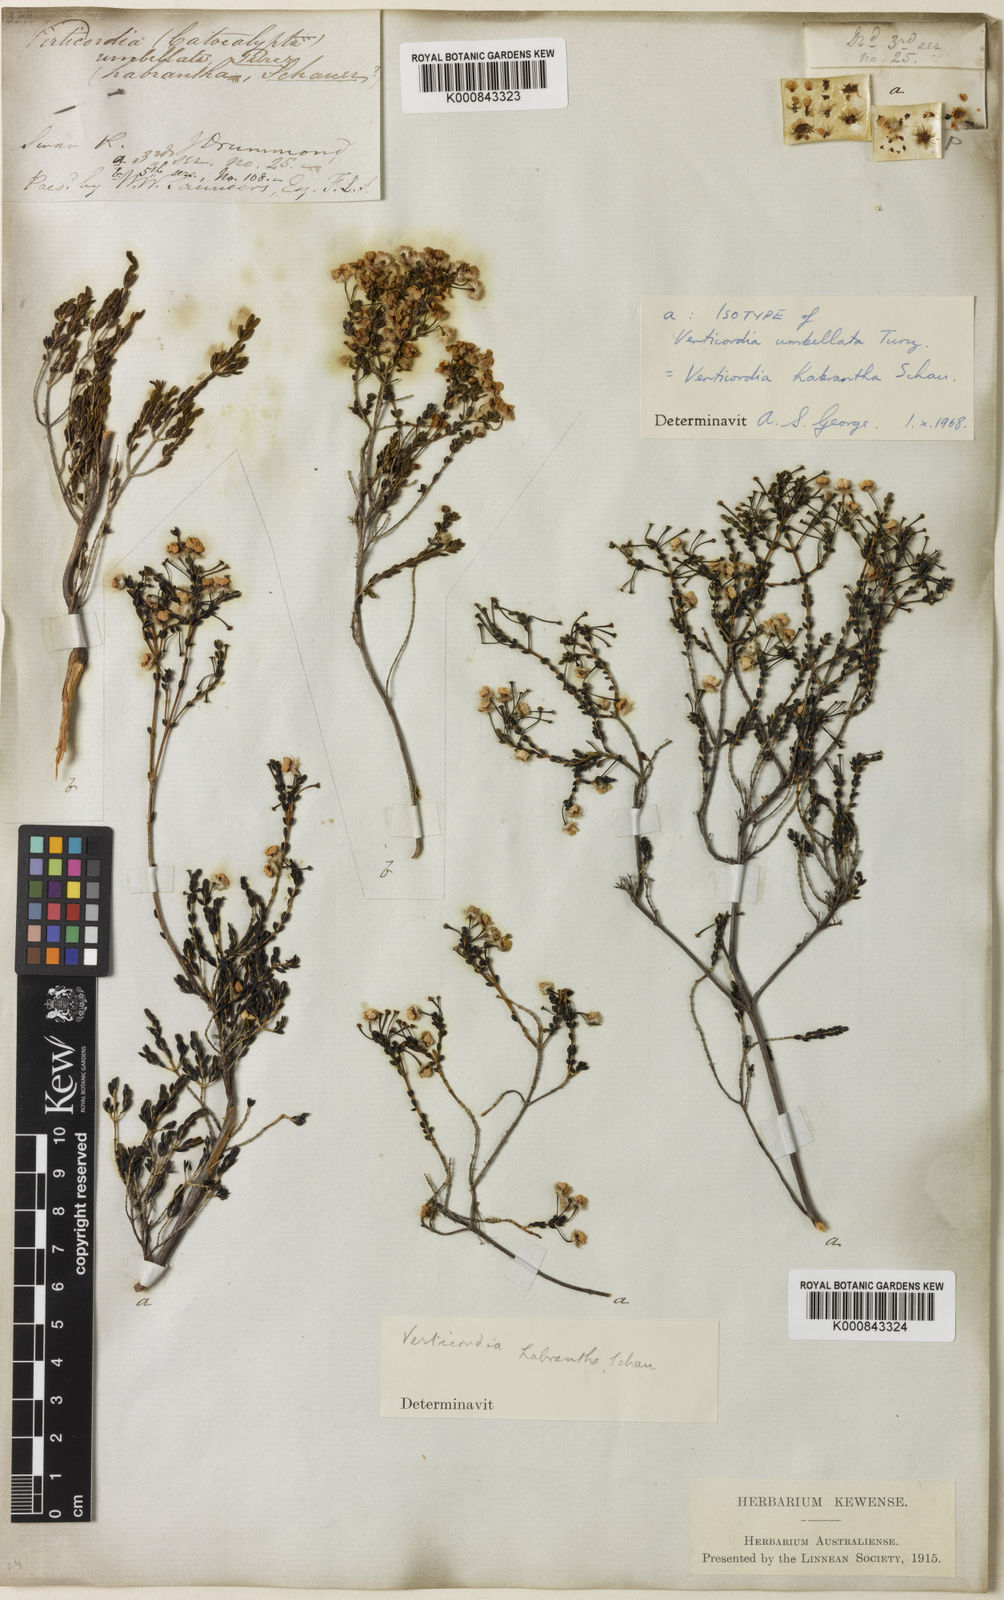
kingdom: Plantae
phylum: Tracheophyta
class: Magnoliopsida
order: Myrtales
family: Myrtaceae
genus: Verticordia
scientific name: Verticordia habrantha
